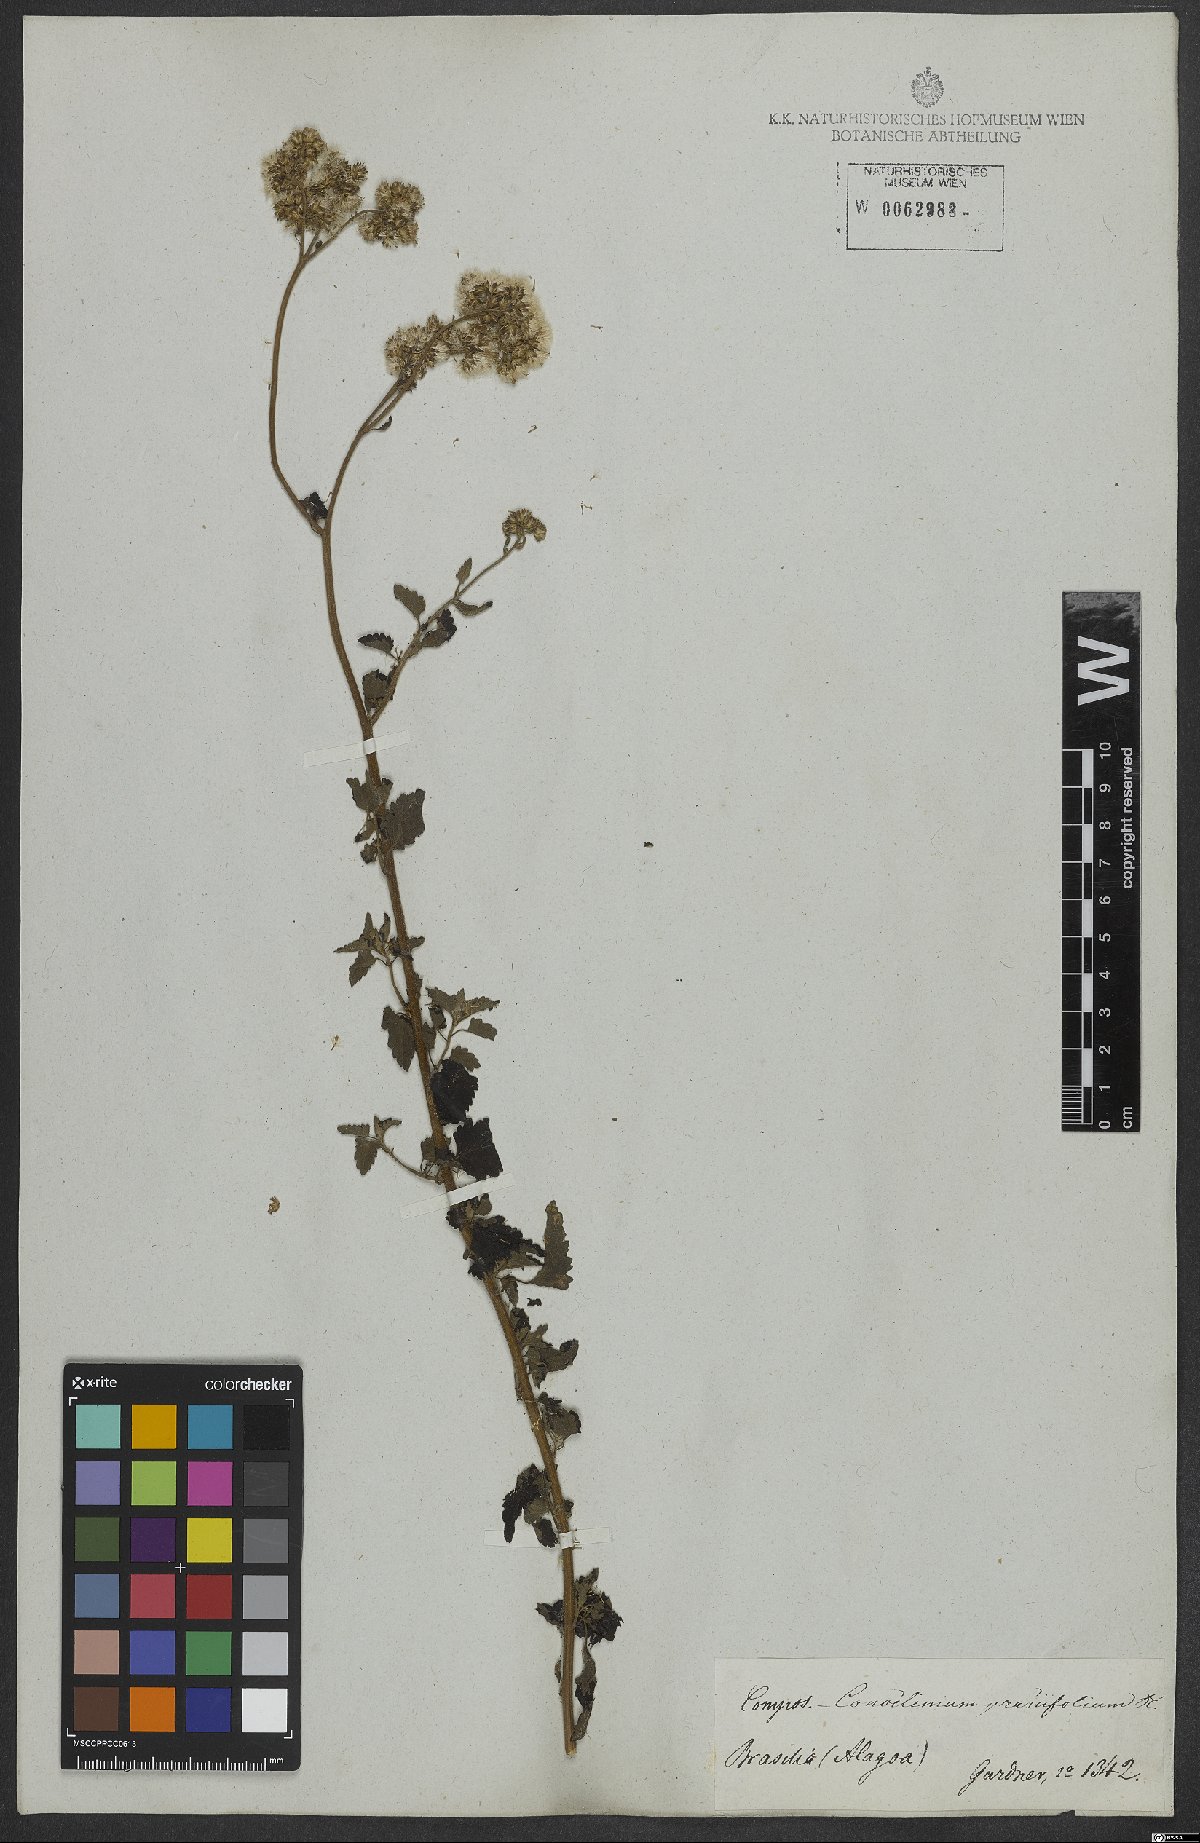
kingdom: Plantae
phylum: Tracheophyta
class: Magnoliopsida
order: Asterales
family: Asteraceae
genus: Conocliniopsis
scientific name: Conocliniopsis grossedentata
